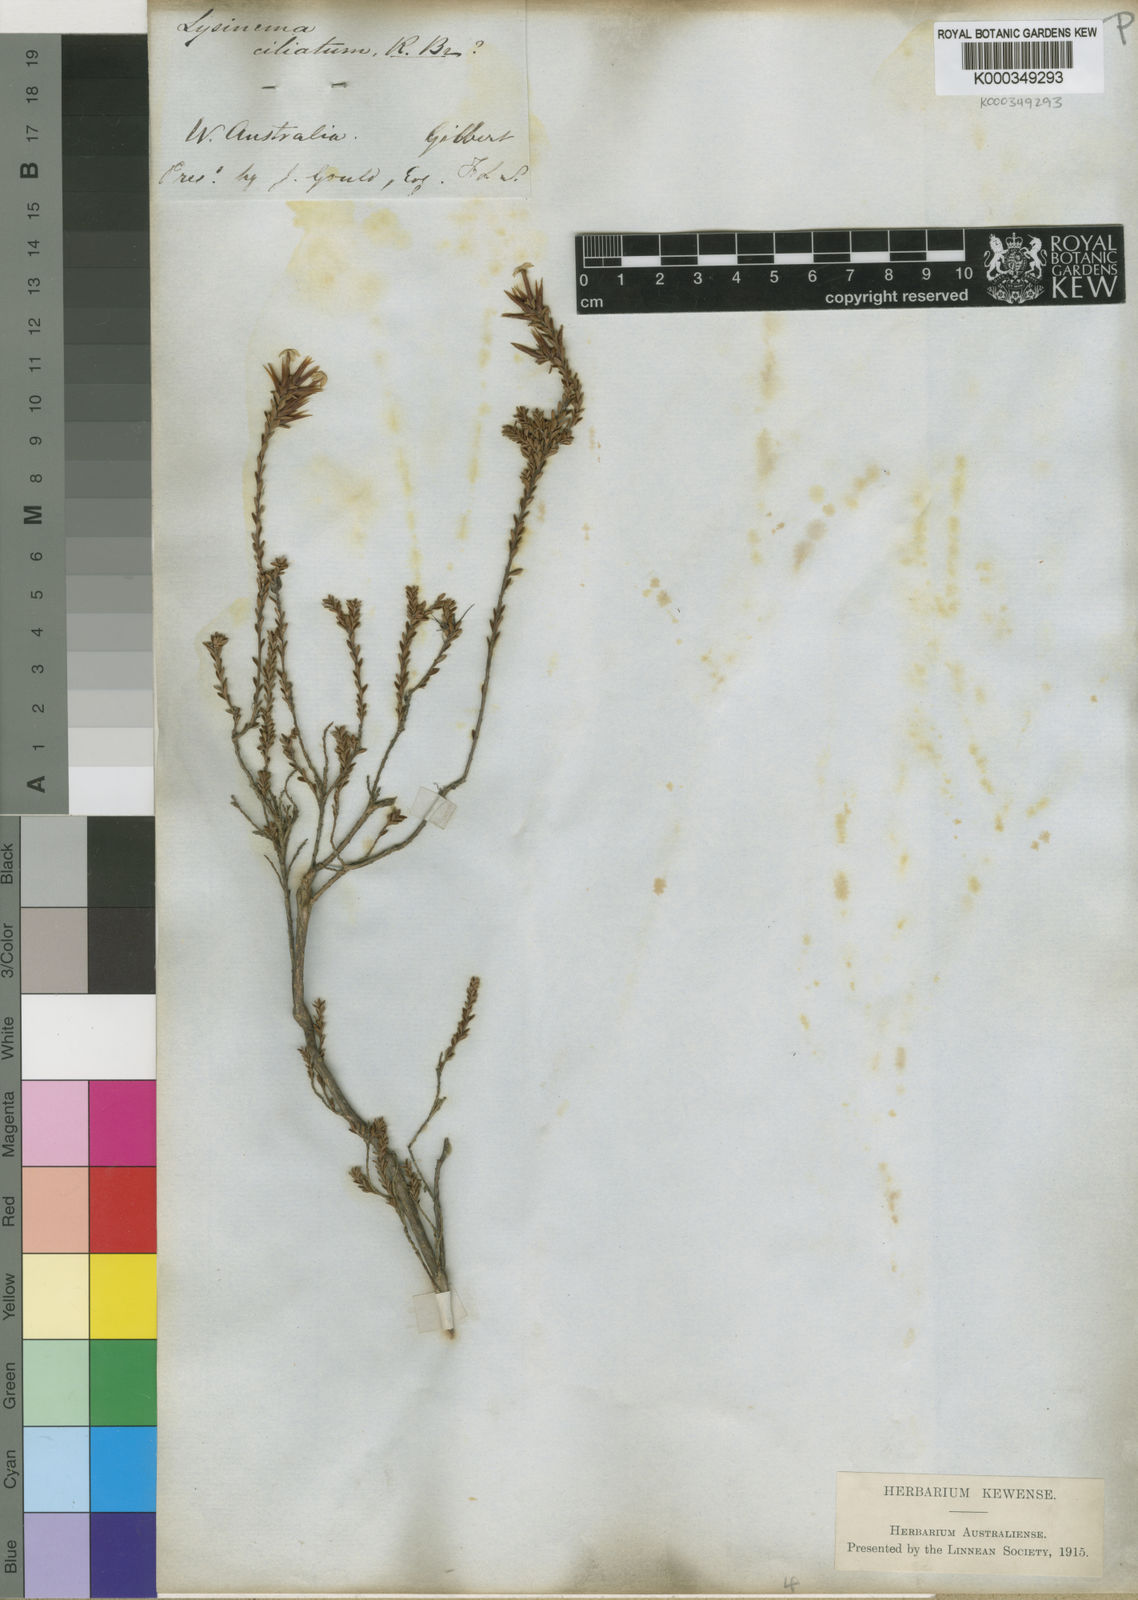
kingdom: Plantae
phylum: Tracheophyta
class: Magnoliopsida
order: Ericales
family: Ericaceae
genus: Lysinema
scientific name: Lysinema ciliatum
